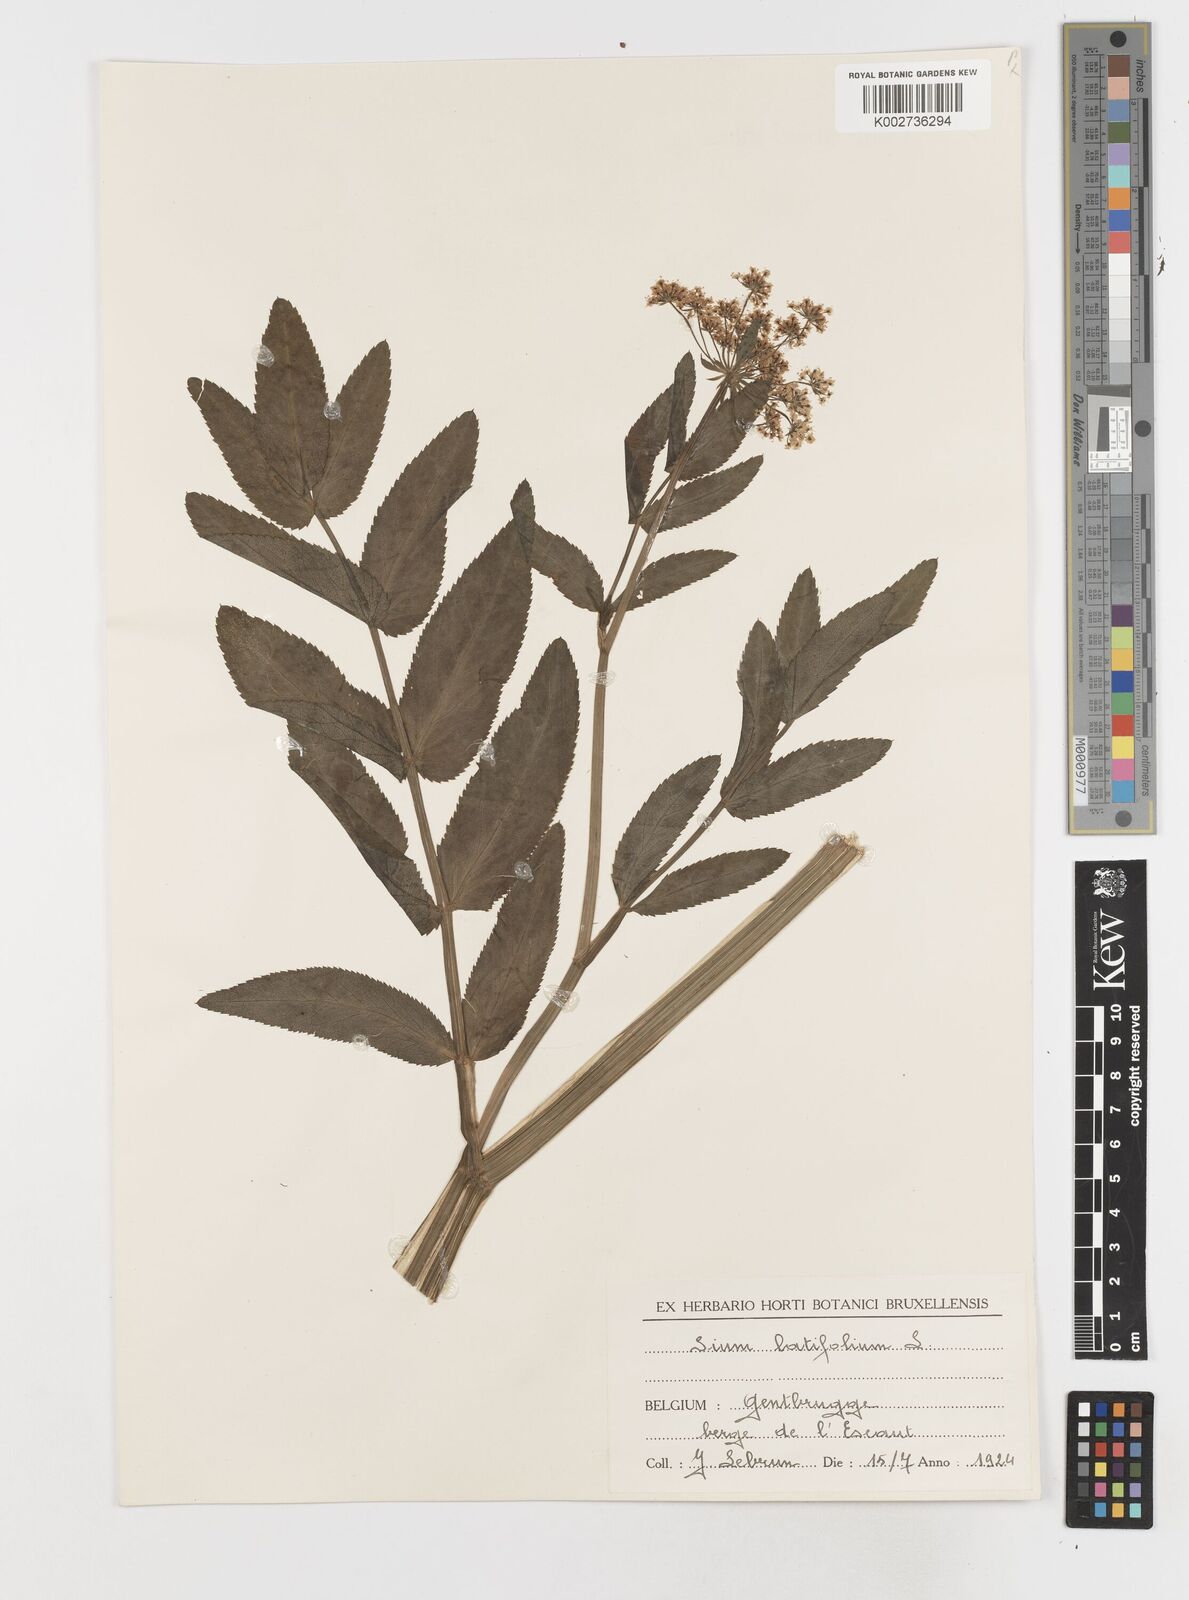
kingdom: Plantae
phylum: Tracheophyta
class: Magnoliopsida
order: Apiales
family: Apiaceae
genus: Sium
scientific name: Sium latifolium
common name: Greater water-parsnip
